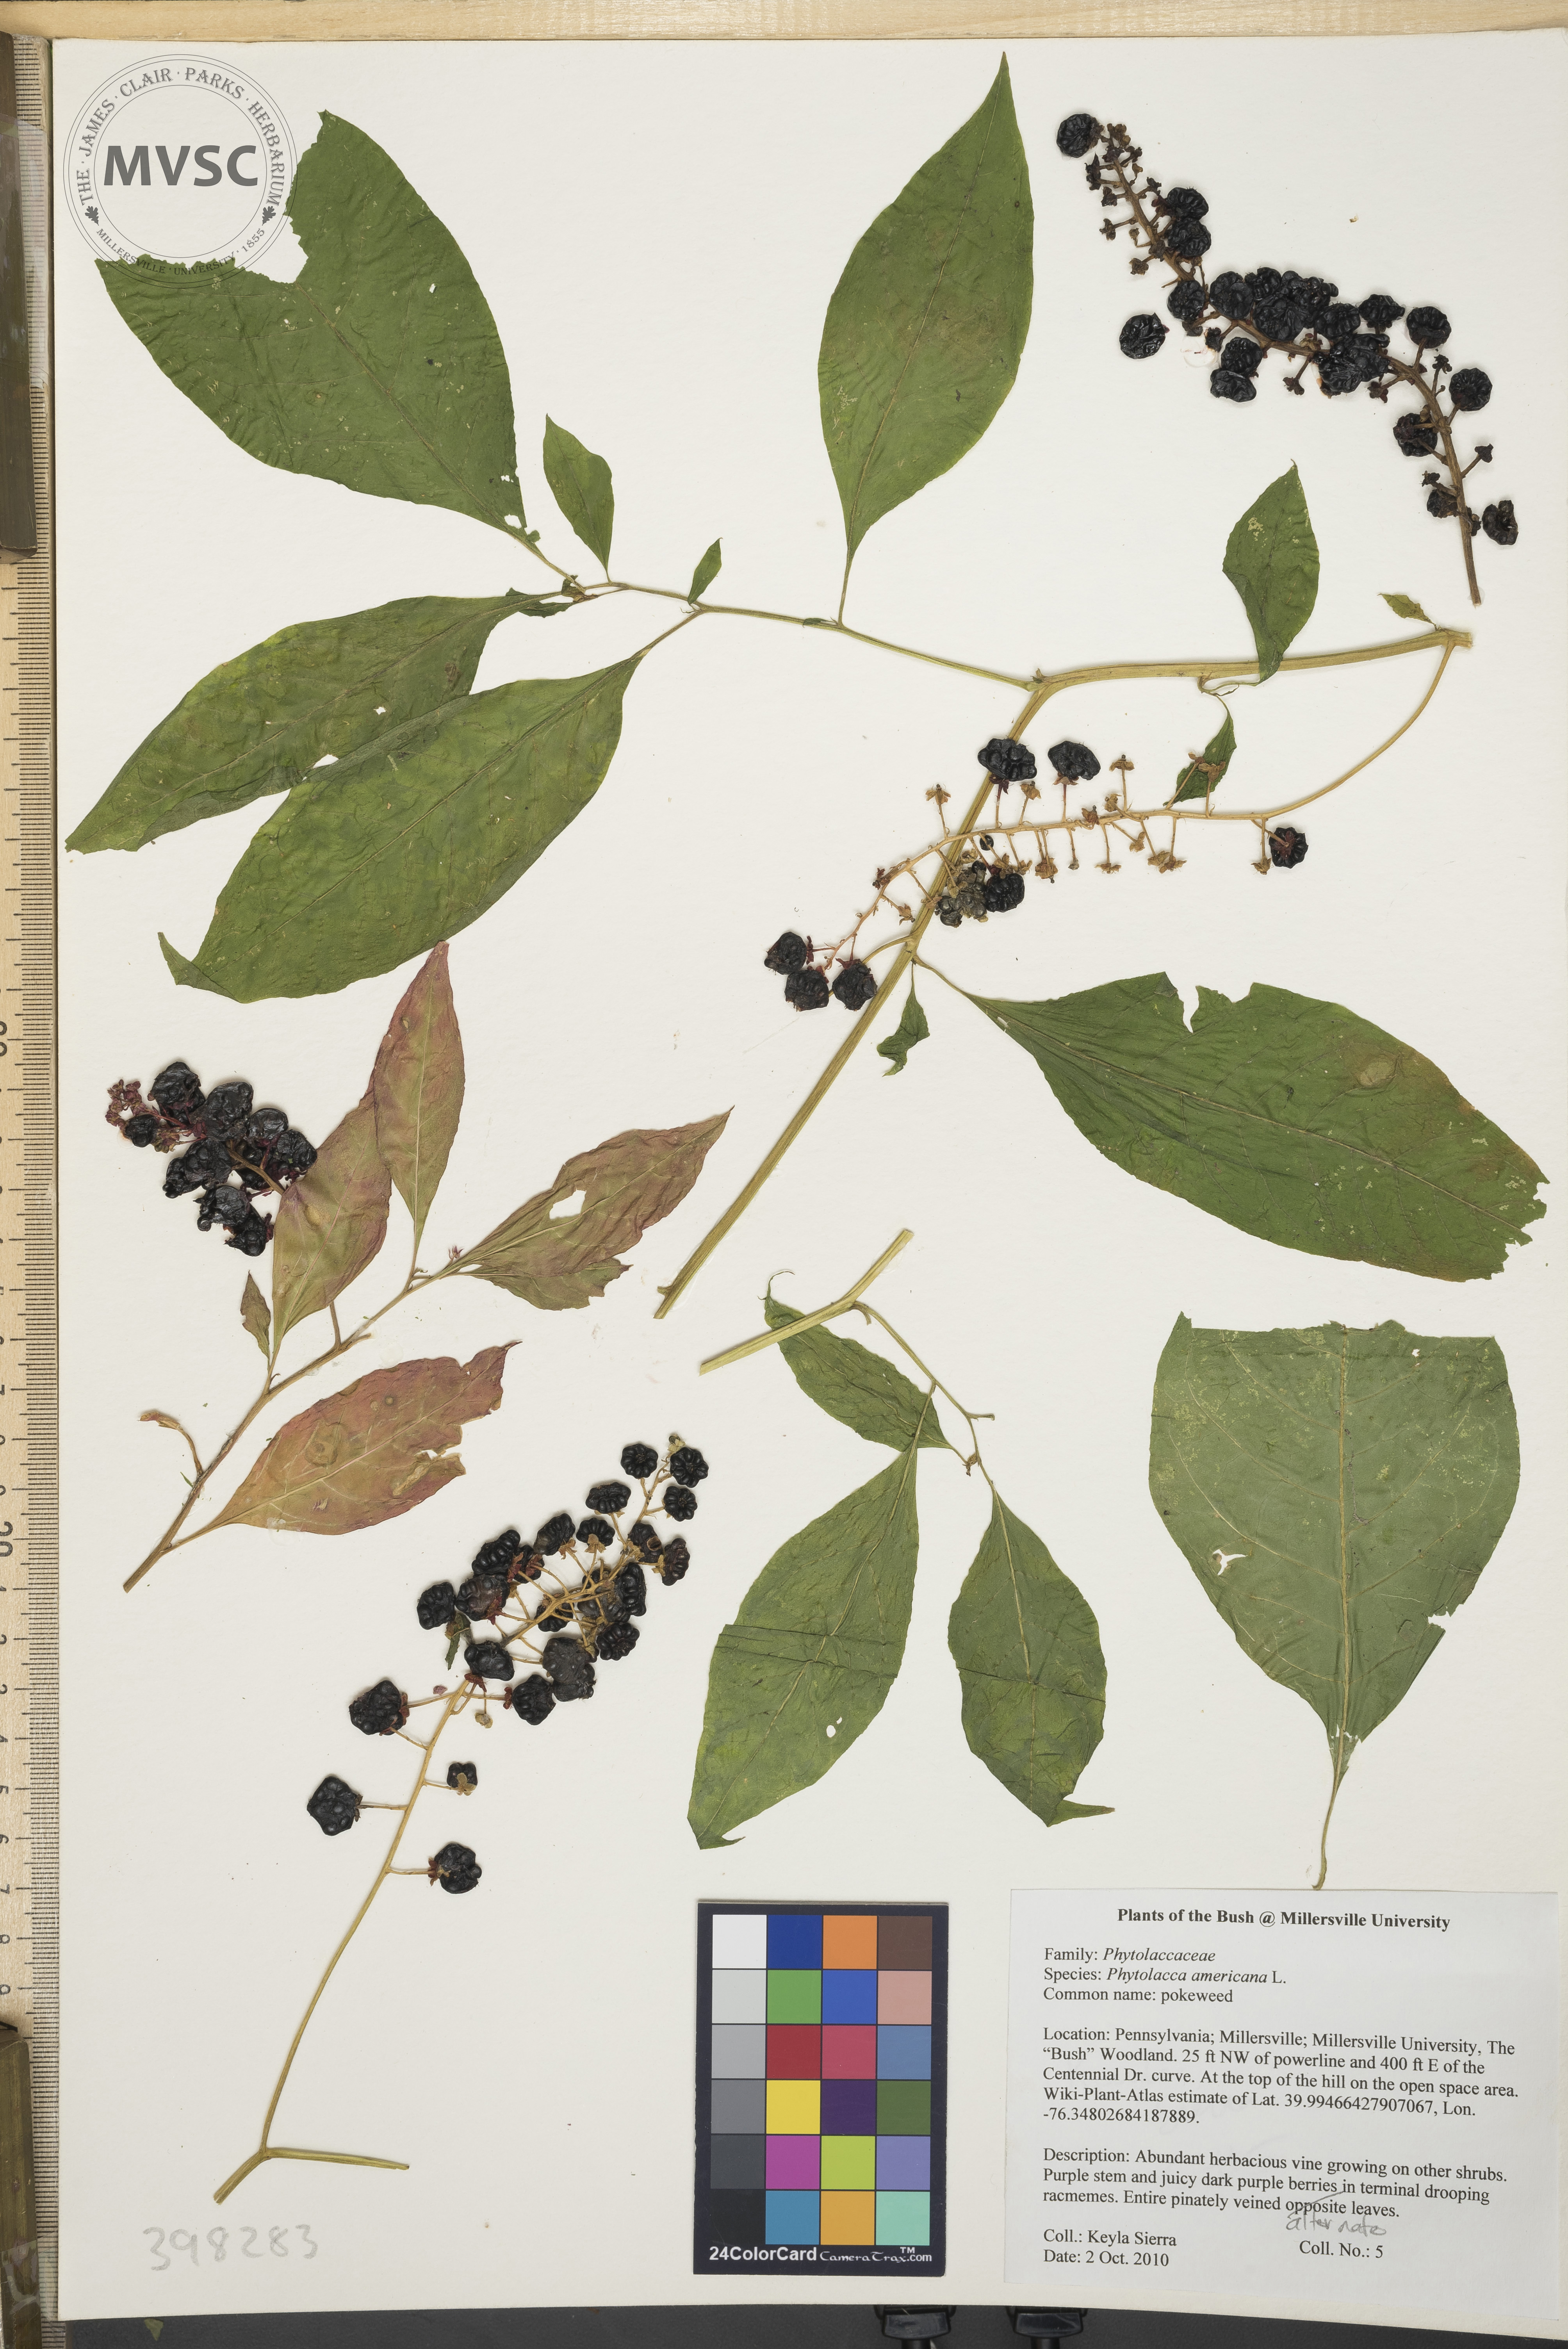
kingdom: Plantae
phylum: Tracheophyta
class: Magnoliopsida
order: Caryophyllales
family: Phytolaccaceae
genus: Phytolacca
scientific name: Phytolacca americana
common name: Pokeweed
